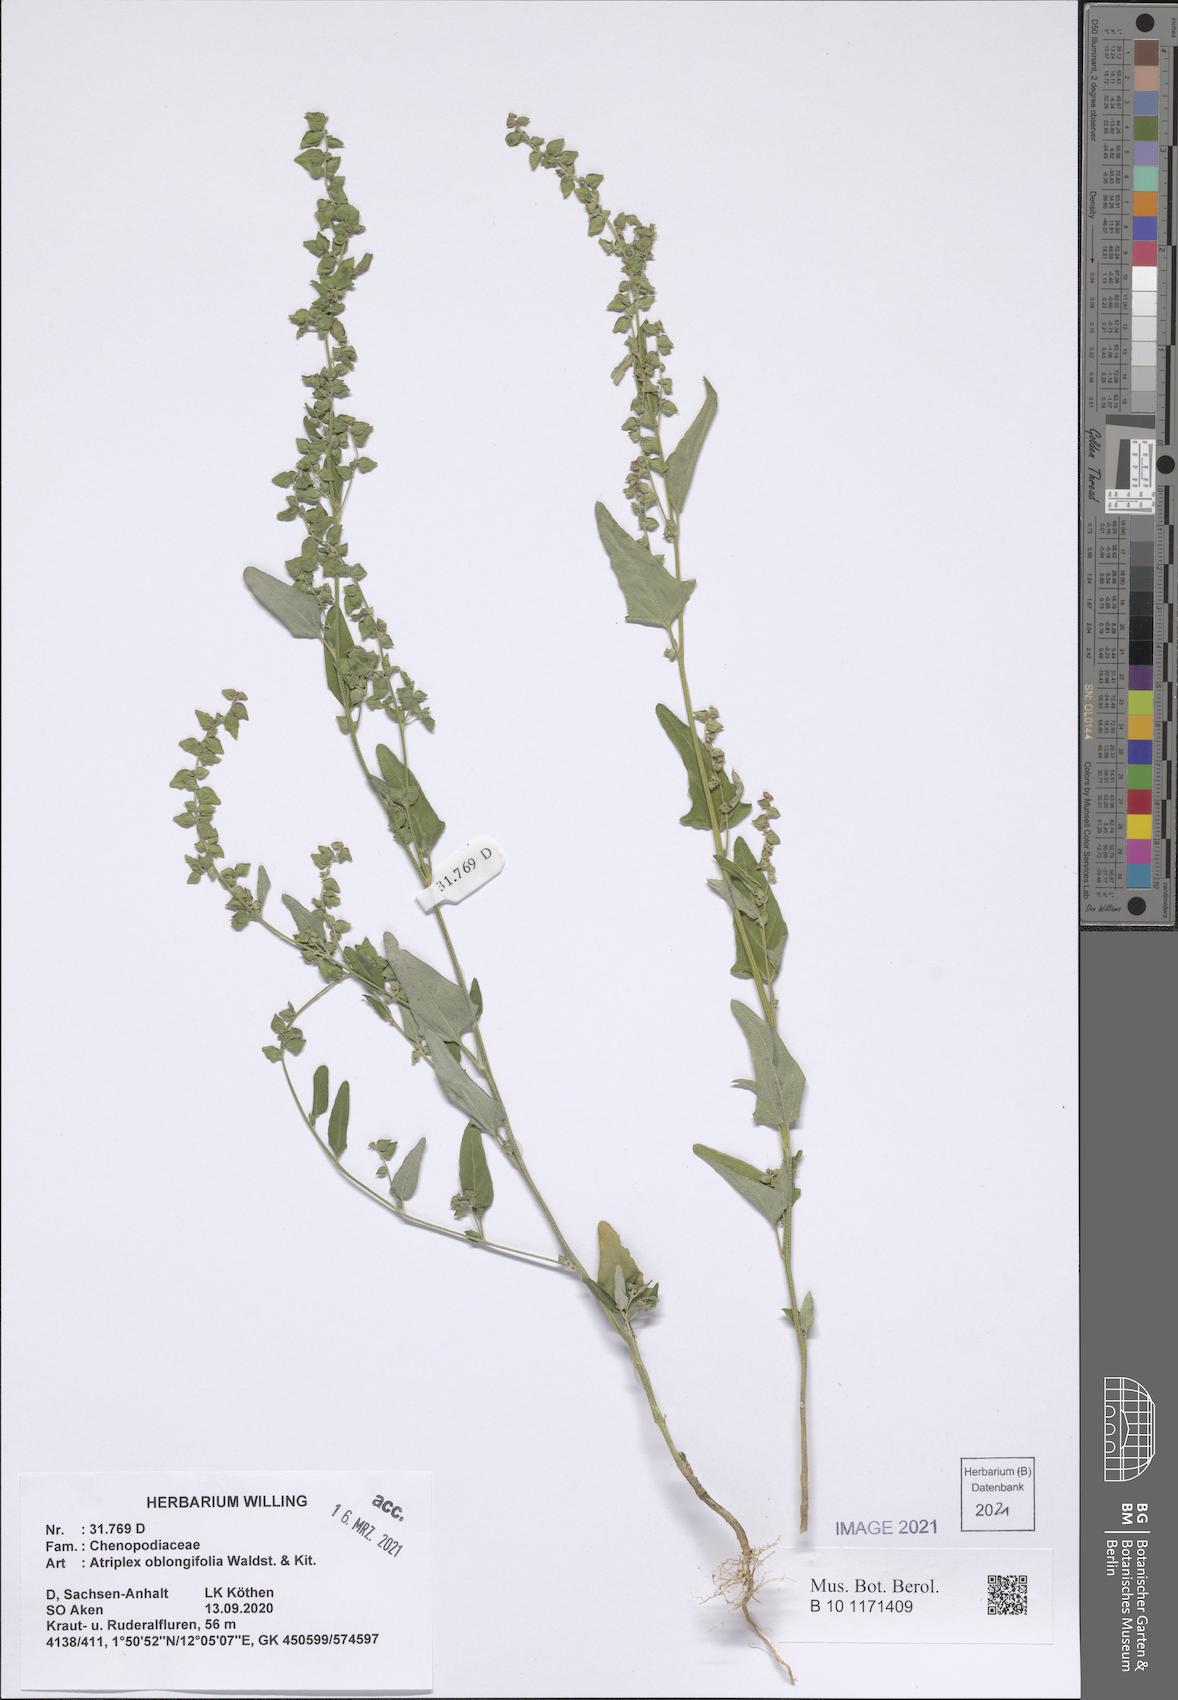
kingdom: Plantae
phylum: Tracheophyta
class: Magnoliopsida
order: Caryophyllales
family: Amaranthaceae
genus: Atriplex
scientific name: Atriplex oblongifolia
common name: Oblongleaf orache
